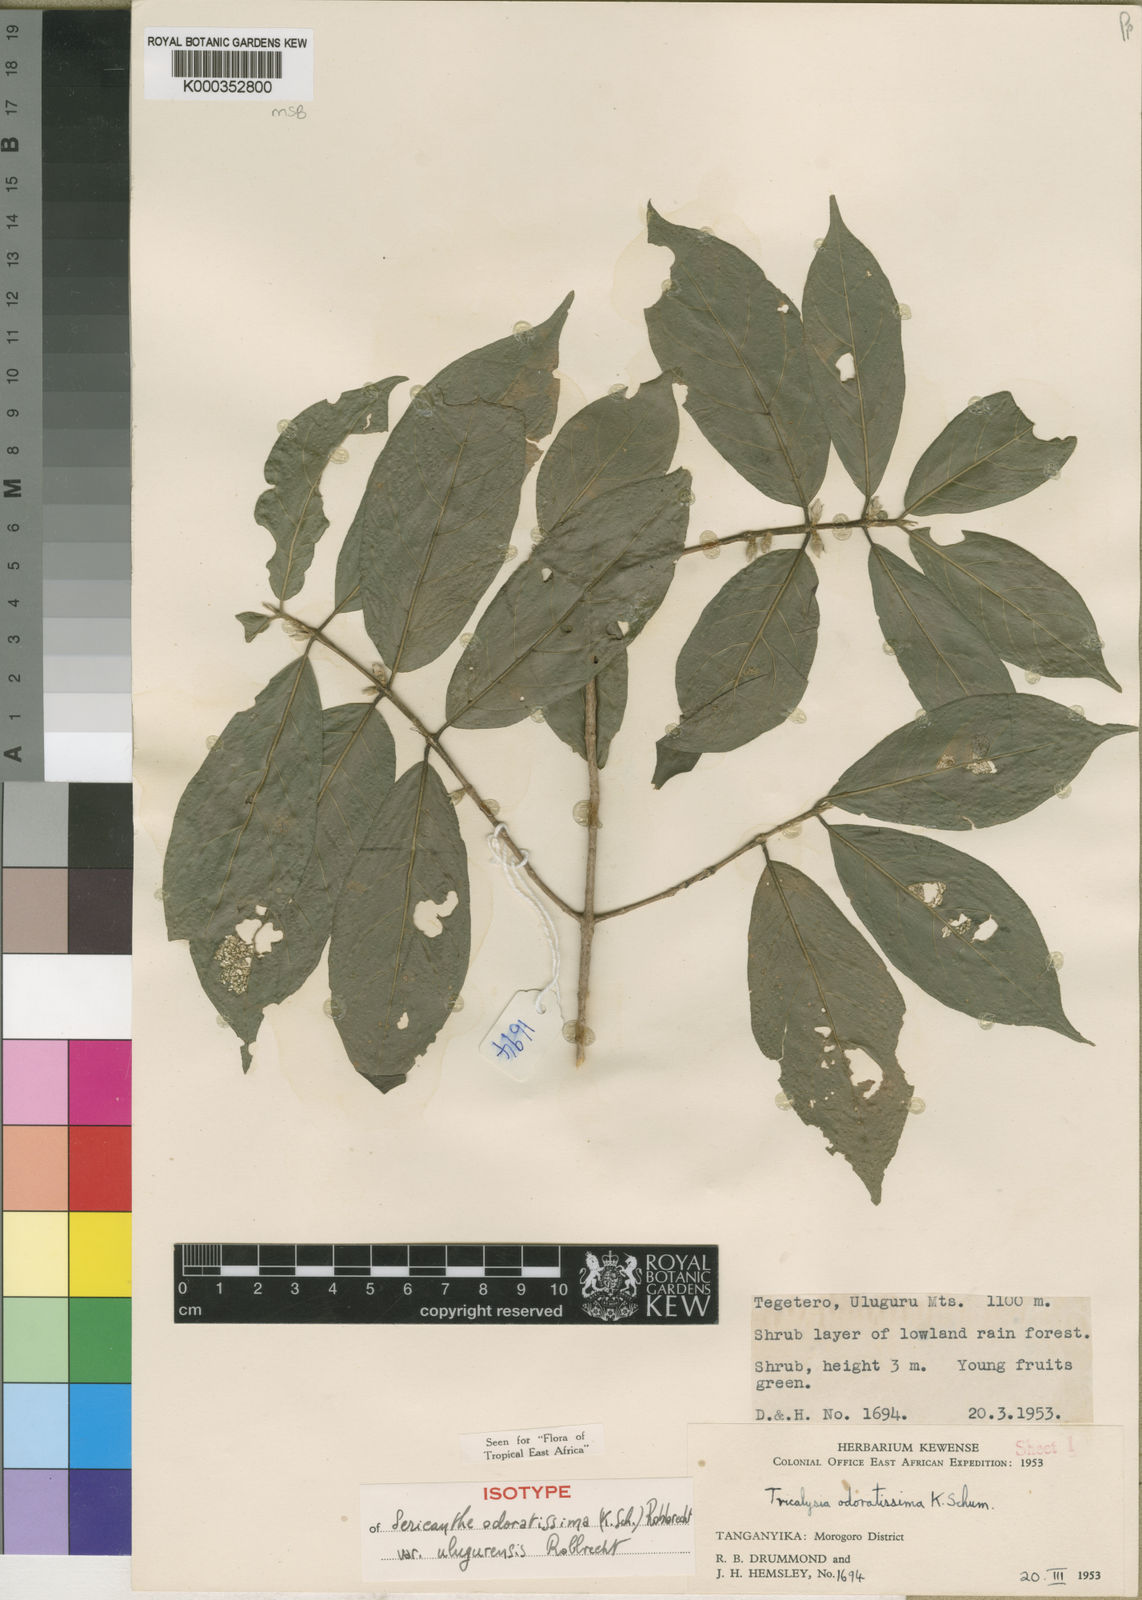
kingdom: Plantae
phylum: Tracheophyta
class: Magnoliopsida
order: Gentianales
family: Rubiaceae
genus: Sericanthe
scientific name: Sericanthe odoratissima
